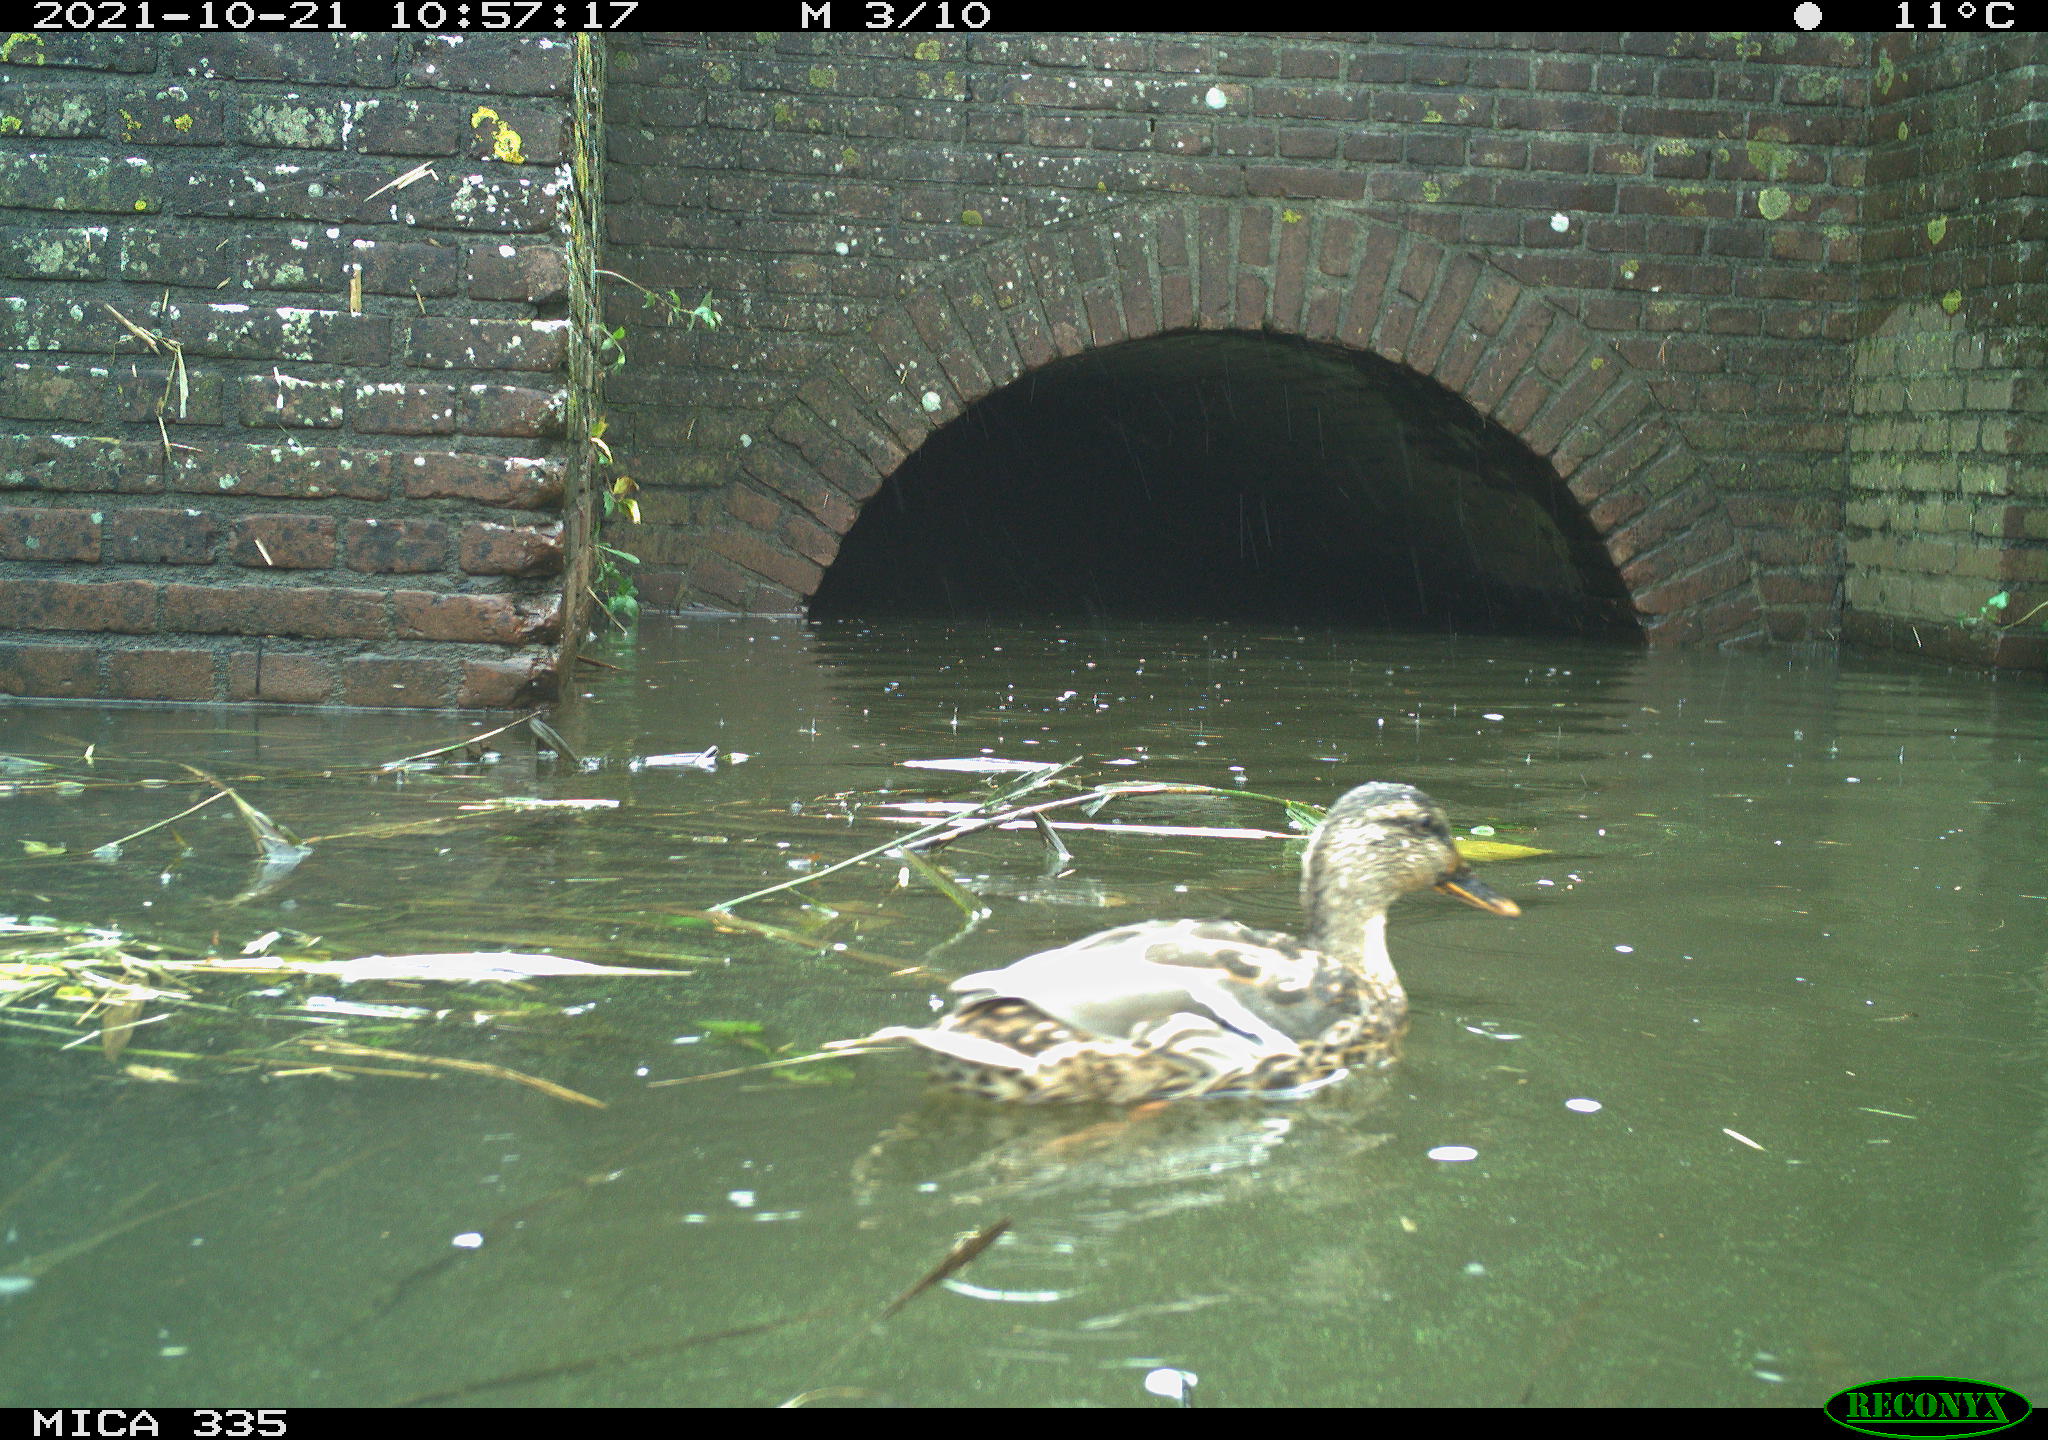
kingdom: Animalia
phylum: Chordata
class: Aves
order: Anseriformes
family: Anatidae
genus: Anas
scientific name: Anas platyrhynchos
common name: Mallard
